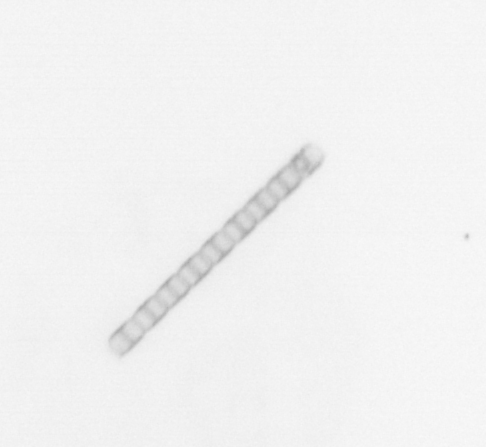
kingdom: Chromista
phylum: Ochrophyta
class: Bacillariophyceae
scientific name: Bacillariophyceae
